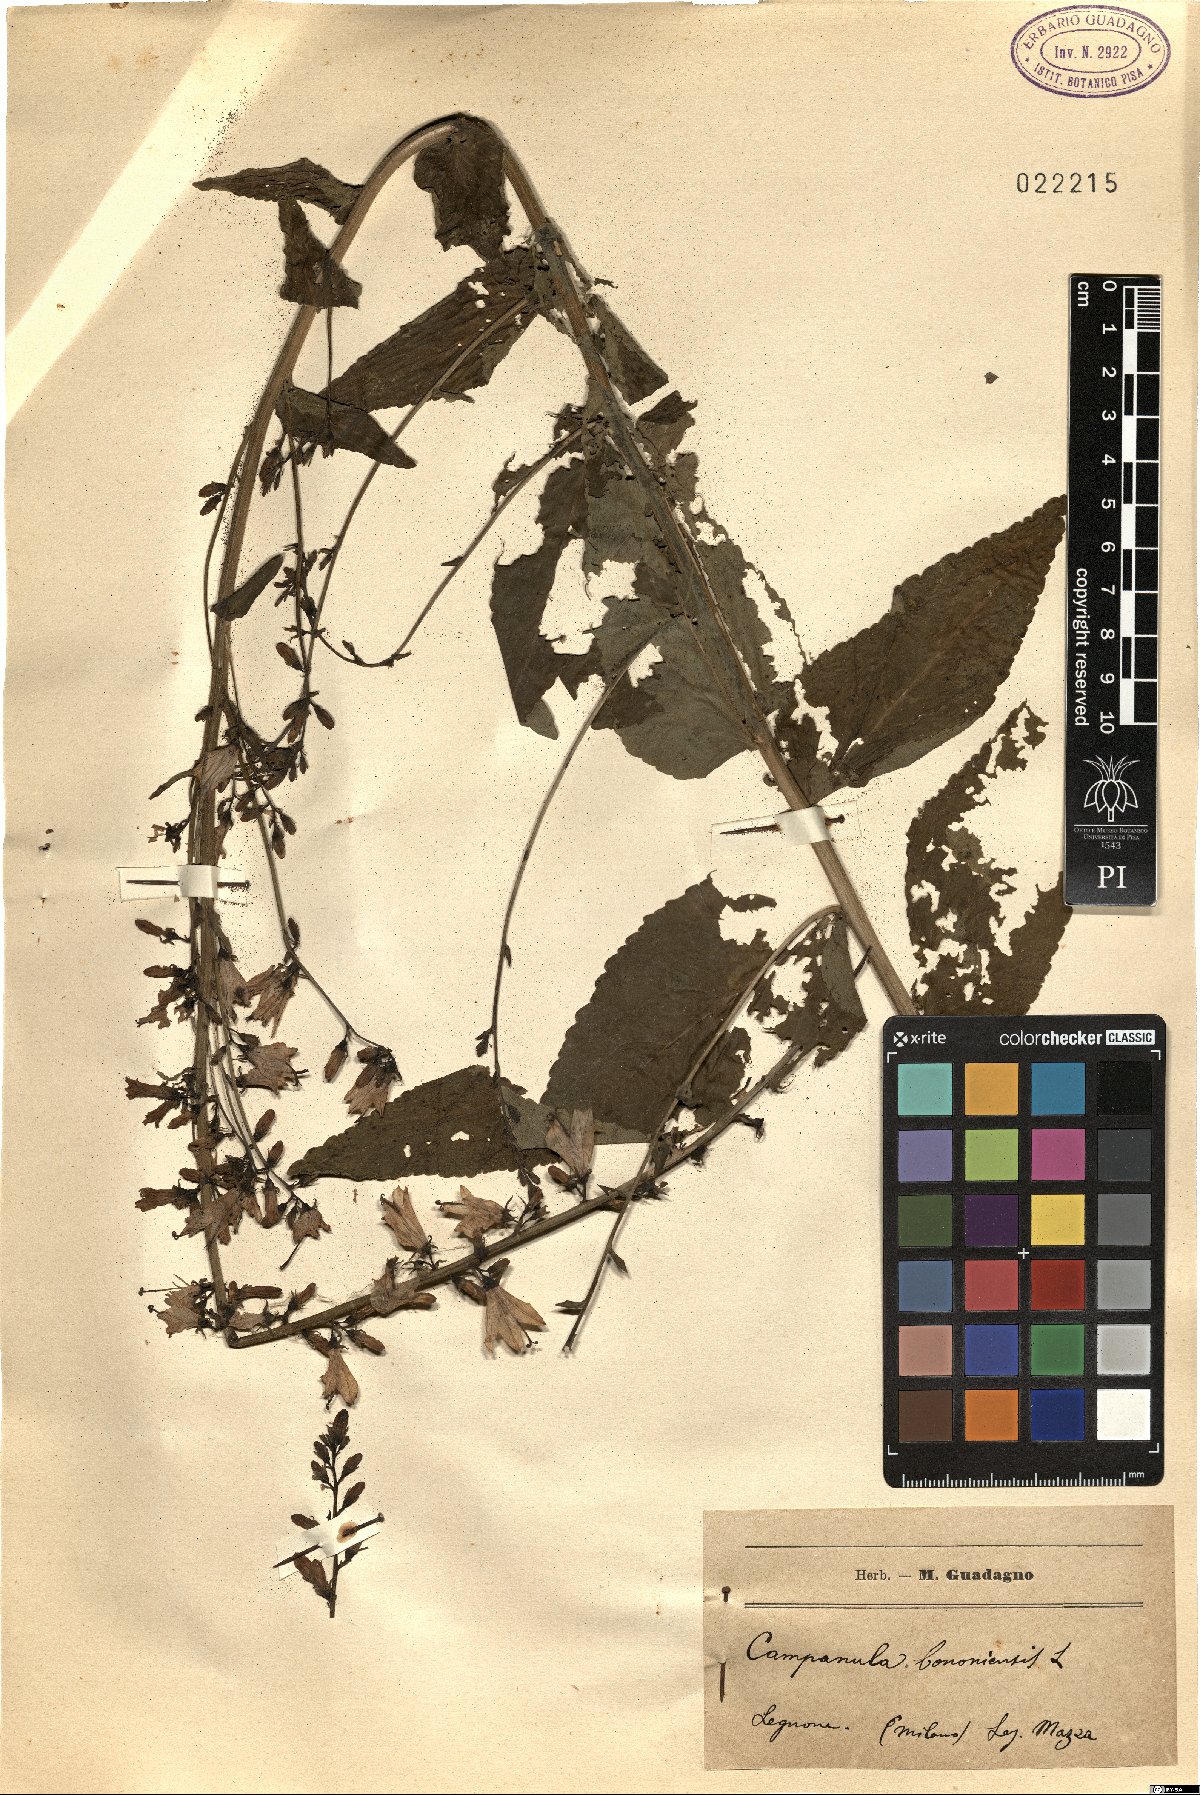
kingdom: Plantae
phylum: Tracheophyta
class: Magnoliopsida
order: Asterales
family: Campanulaceae
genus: Campanula
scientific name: Campanula bononiensis
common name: Pale bellflower
